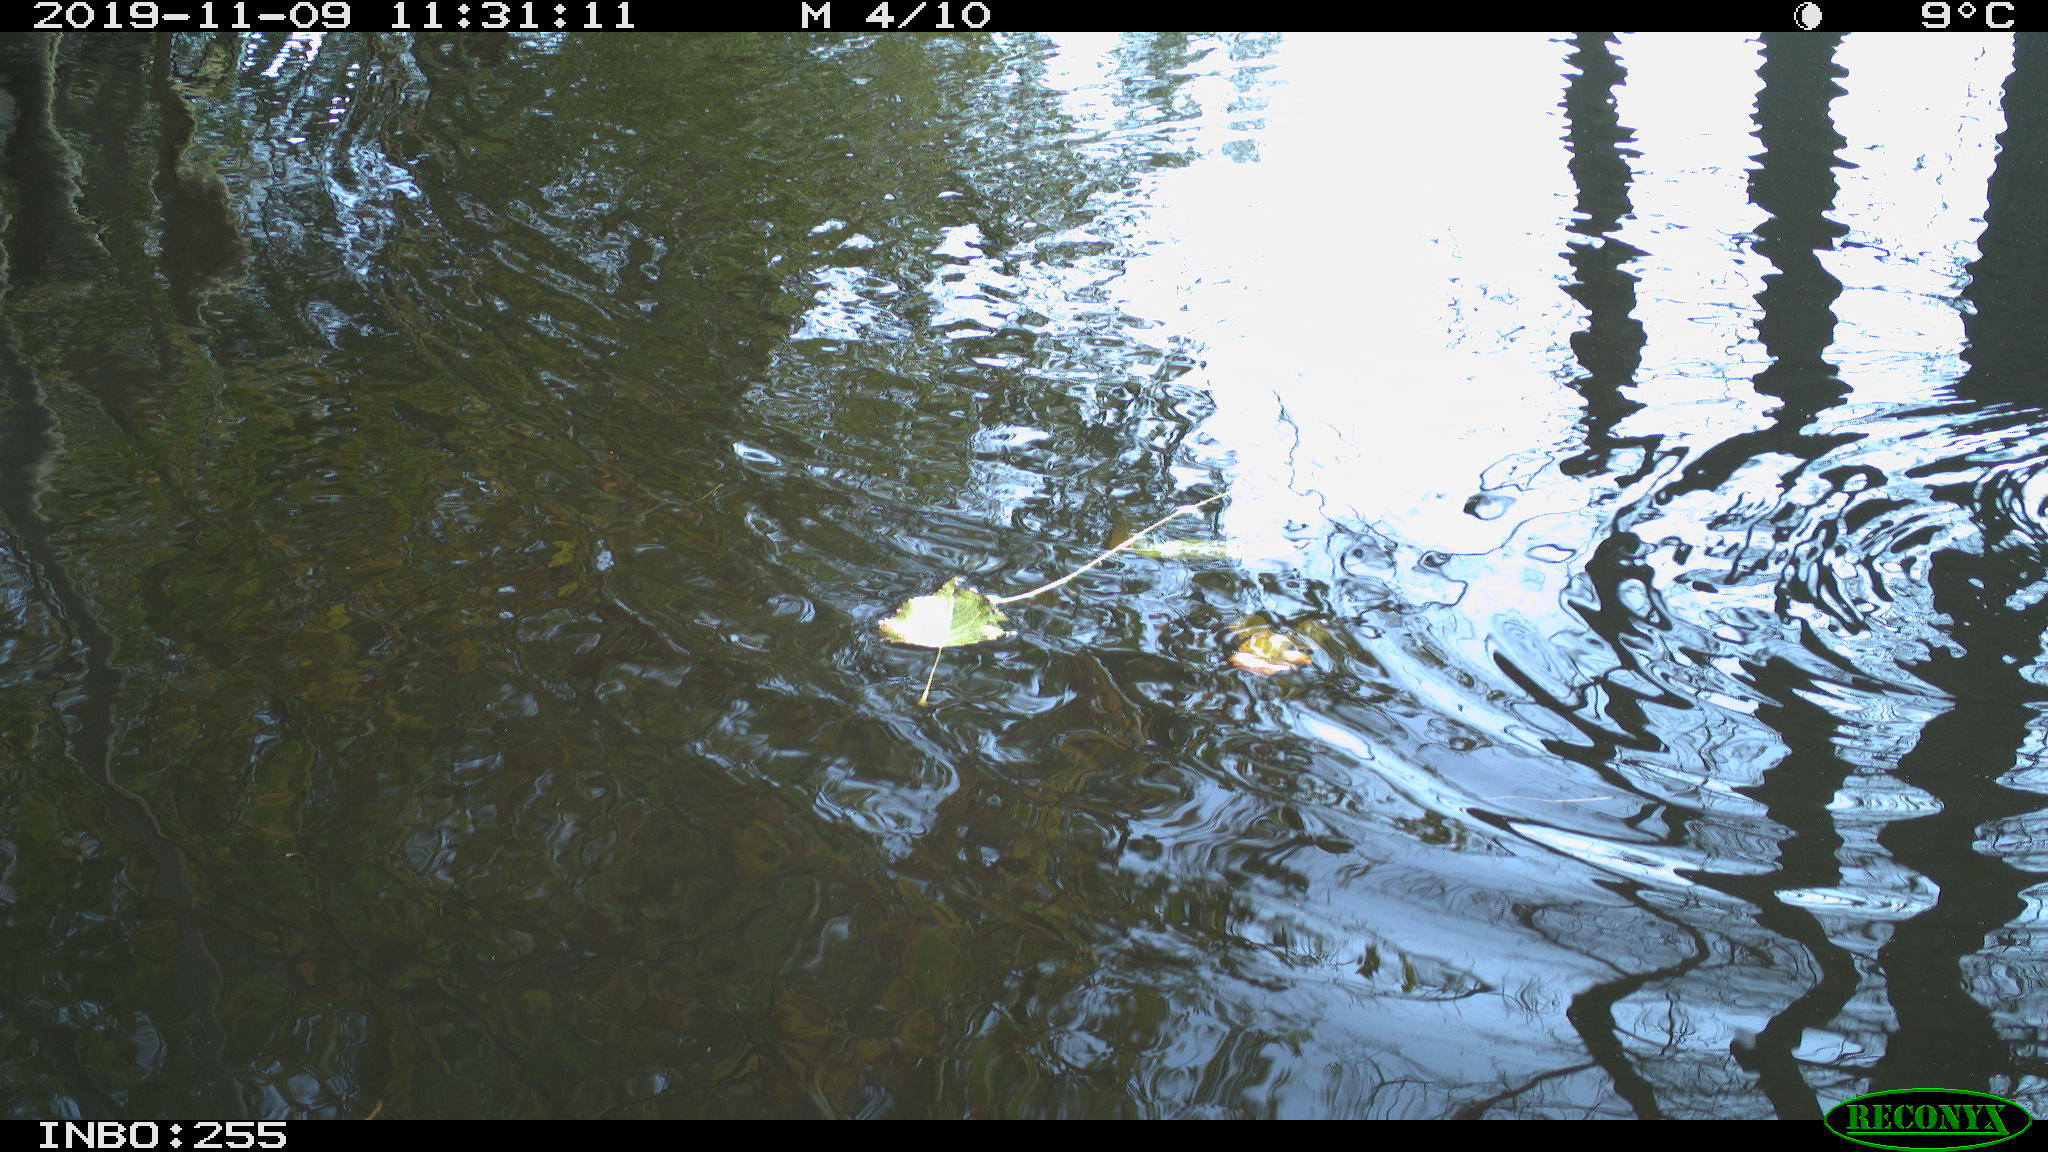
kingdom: Animalia
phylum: Chordata
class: Aves
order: Gruiformes
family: Rallidae
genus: Gallinula
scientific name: Gallinula chloropus
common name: Common moorhen
